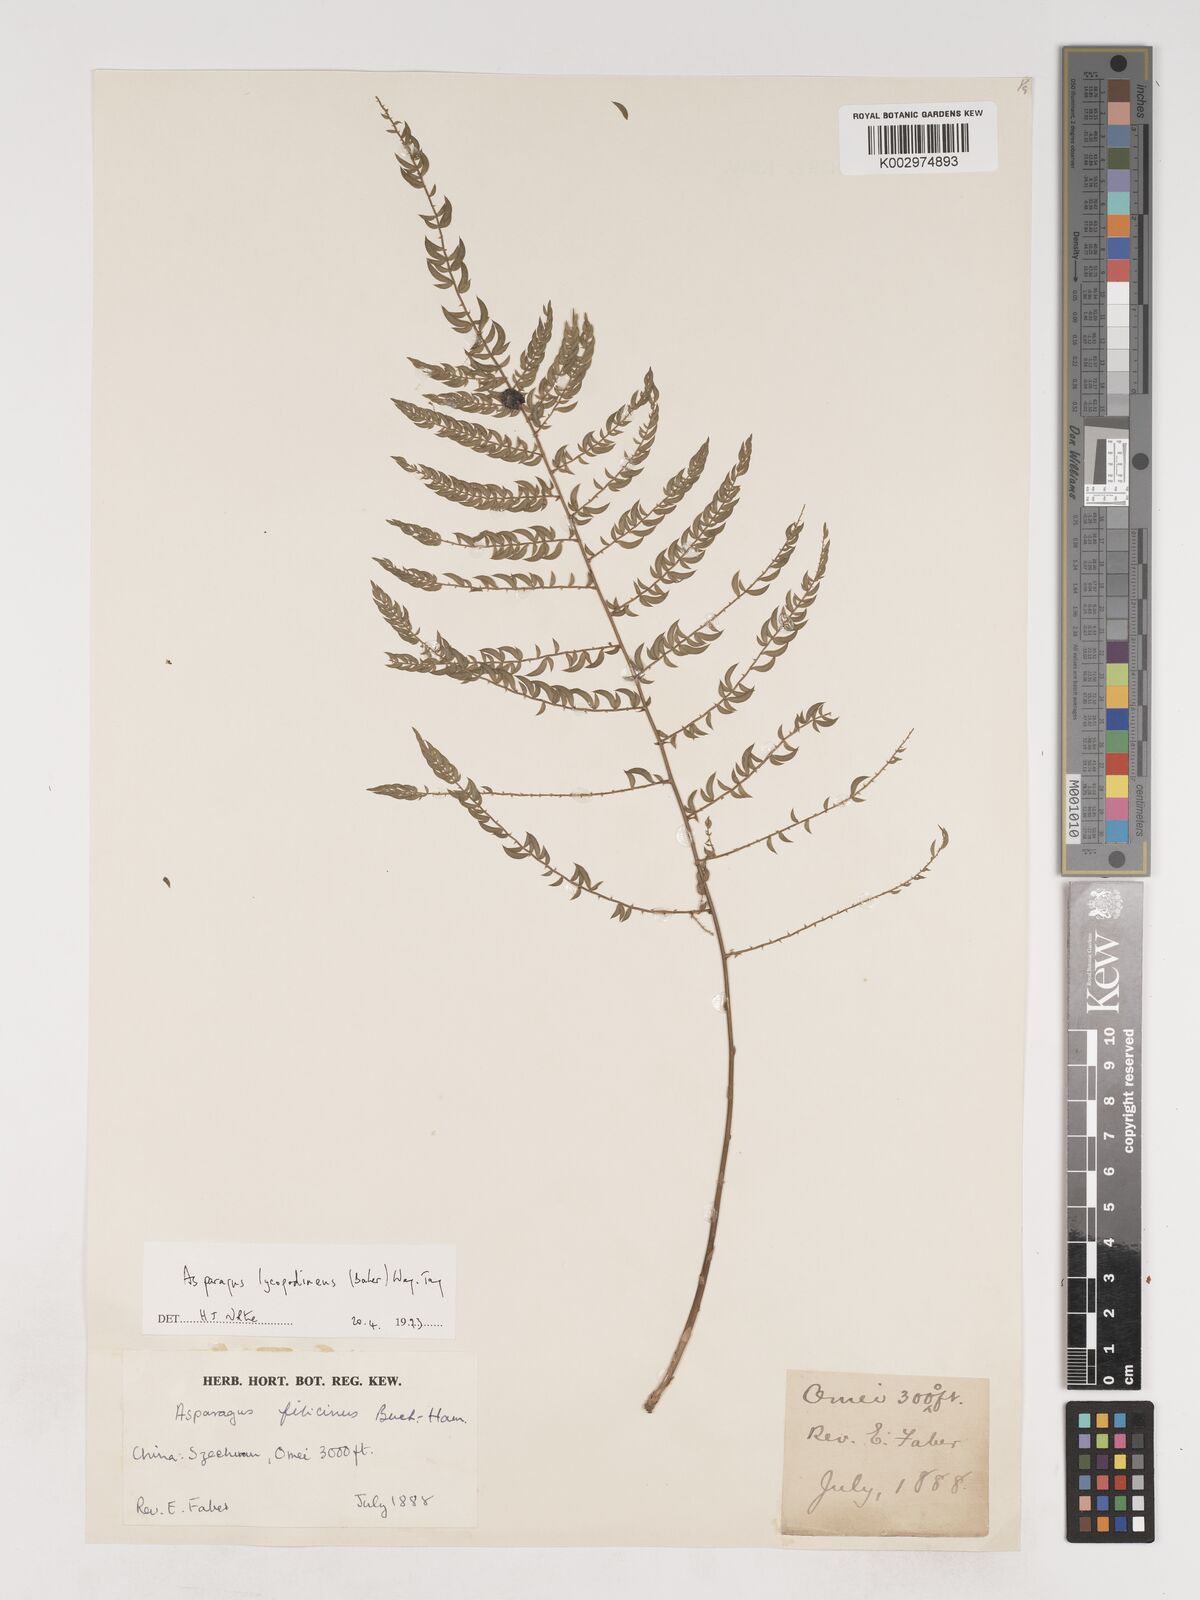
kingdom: Plantae
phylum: Tracheophyta
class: Liliopsida
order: Asparagales
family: Asparagaceae
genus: Asparagus
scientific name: Asparagus lycopodineus
